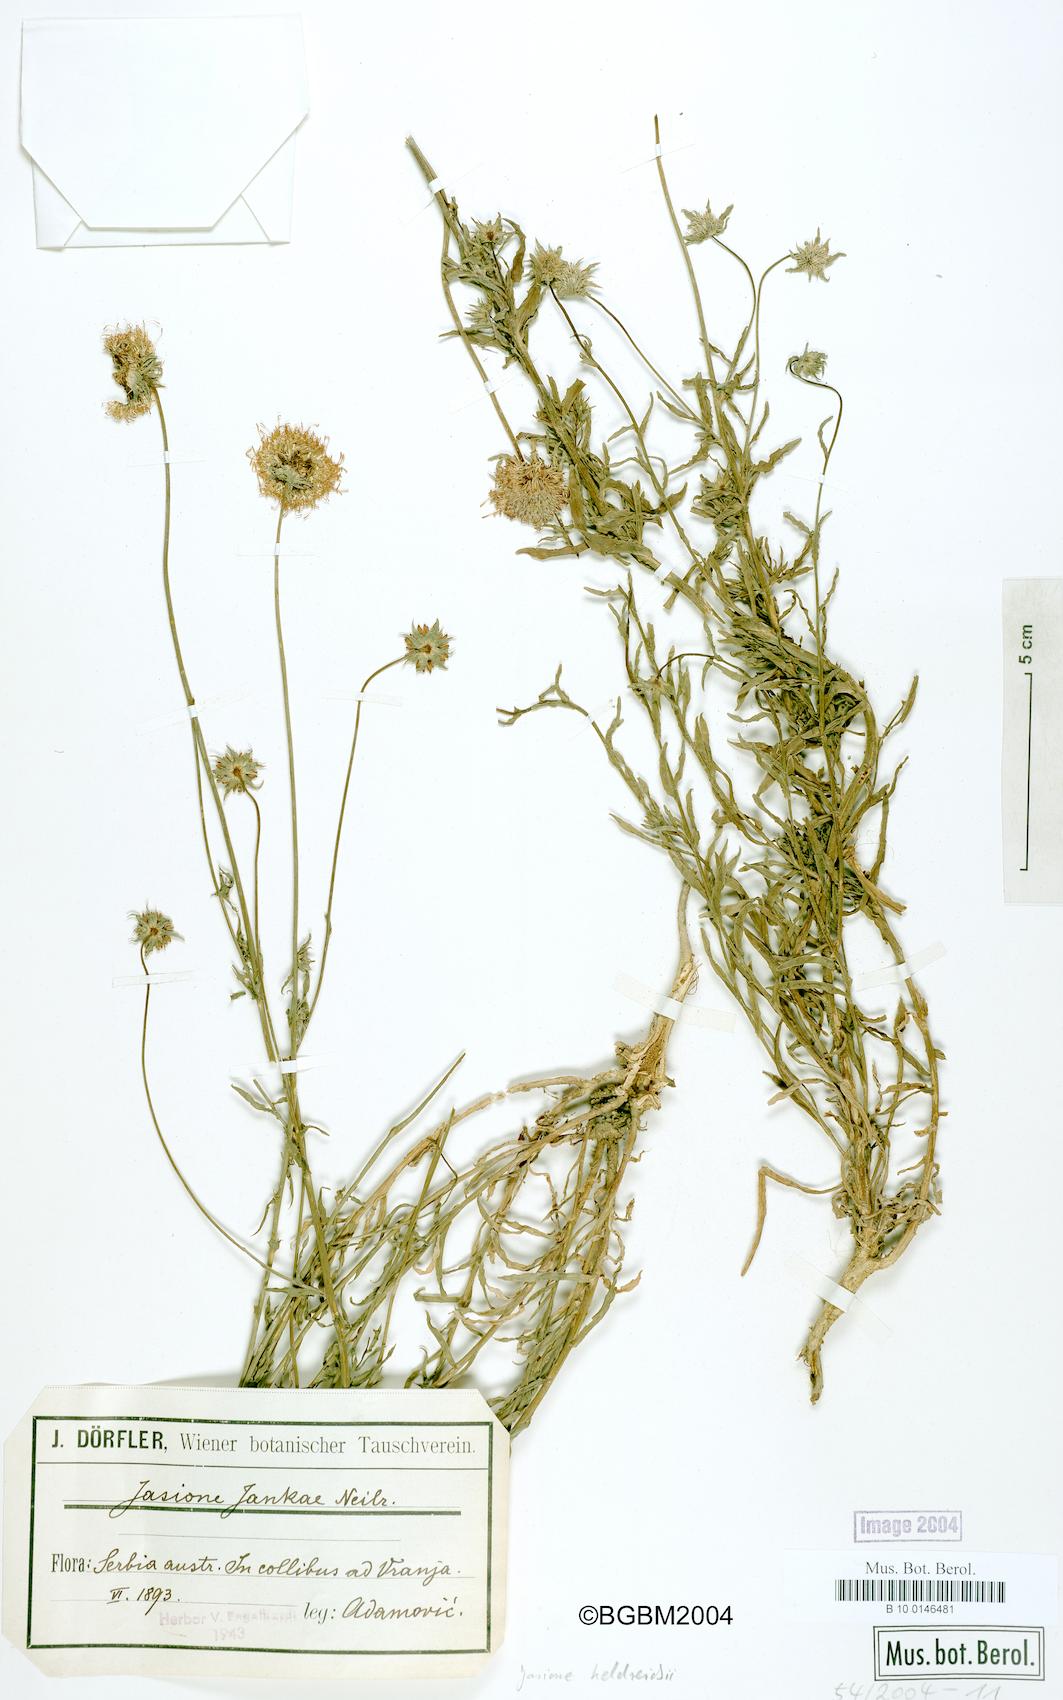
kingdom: Plantae
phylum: Tracheophyta
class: Magnoliopsida
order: Asterales
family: Campanulaceae
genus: Jasione
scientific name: Jasione heldreichii
